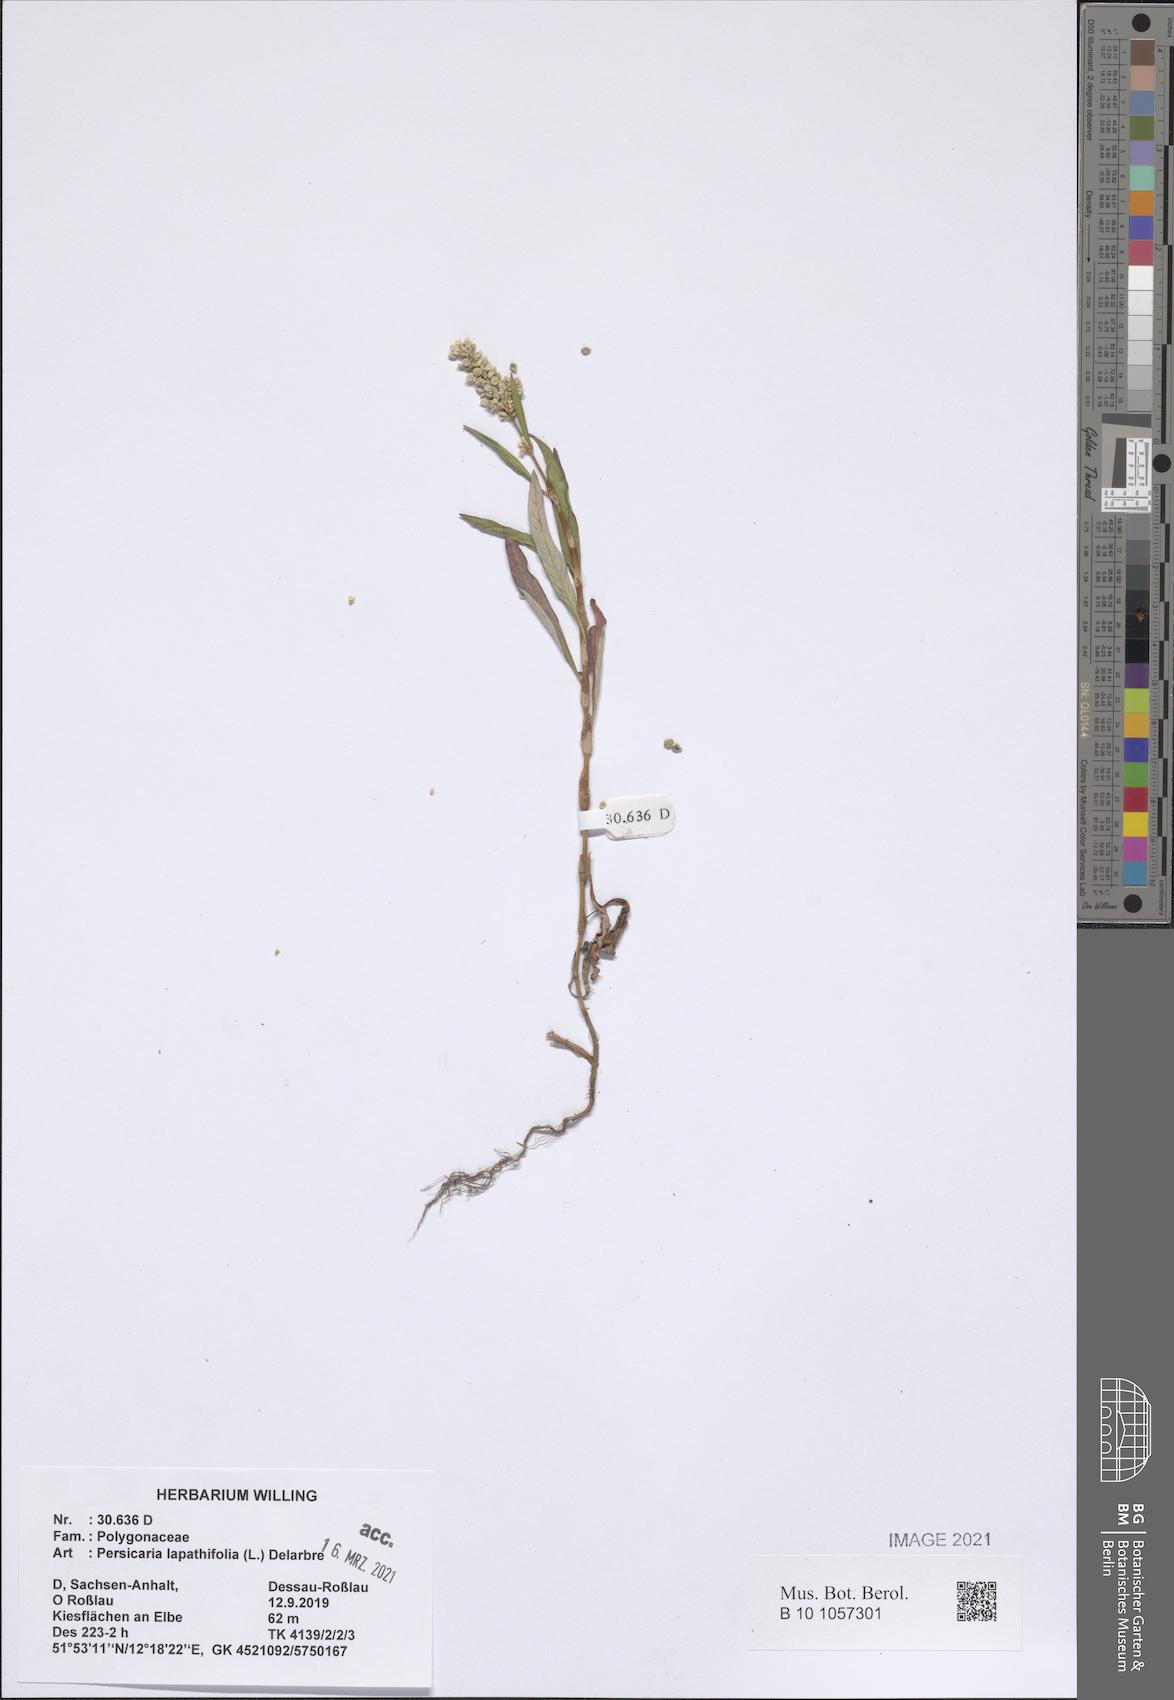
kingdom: Plantae
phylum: Tracheophyta
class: Magnoliopsida
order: Caryophyllales
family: Polygonaceae
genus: Persicaria
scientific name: Persicaria lapathifolia
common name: Curlytop knotweed
